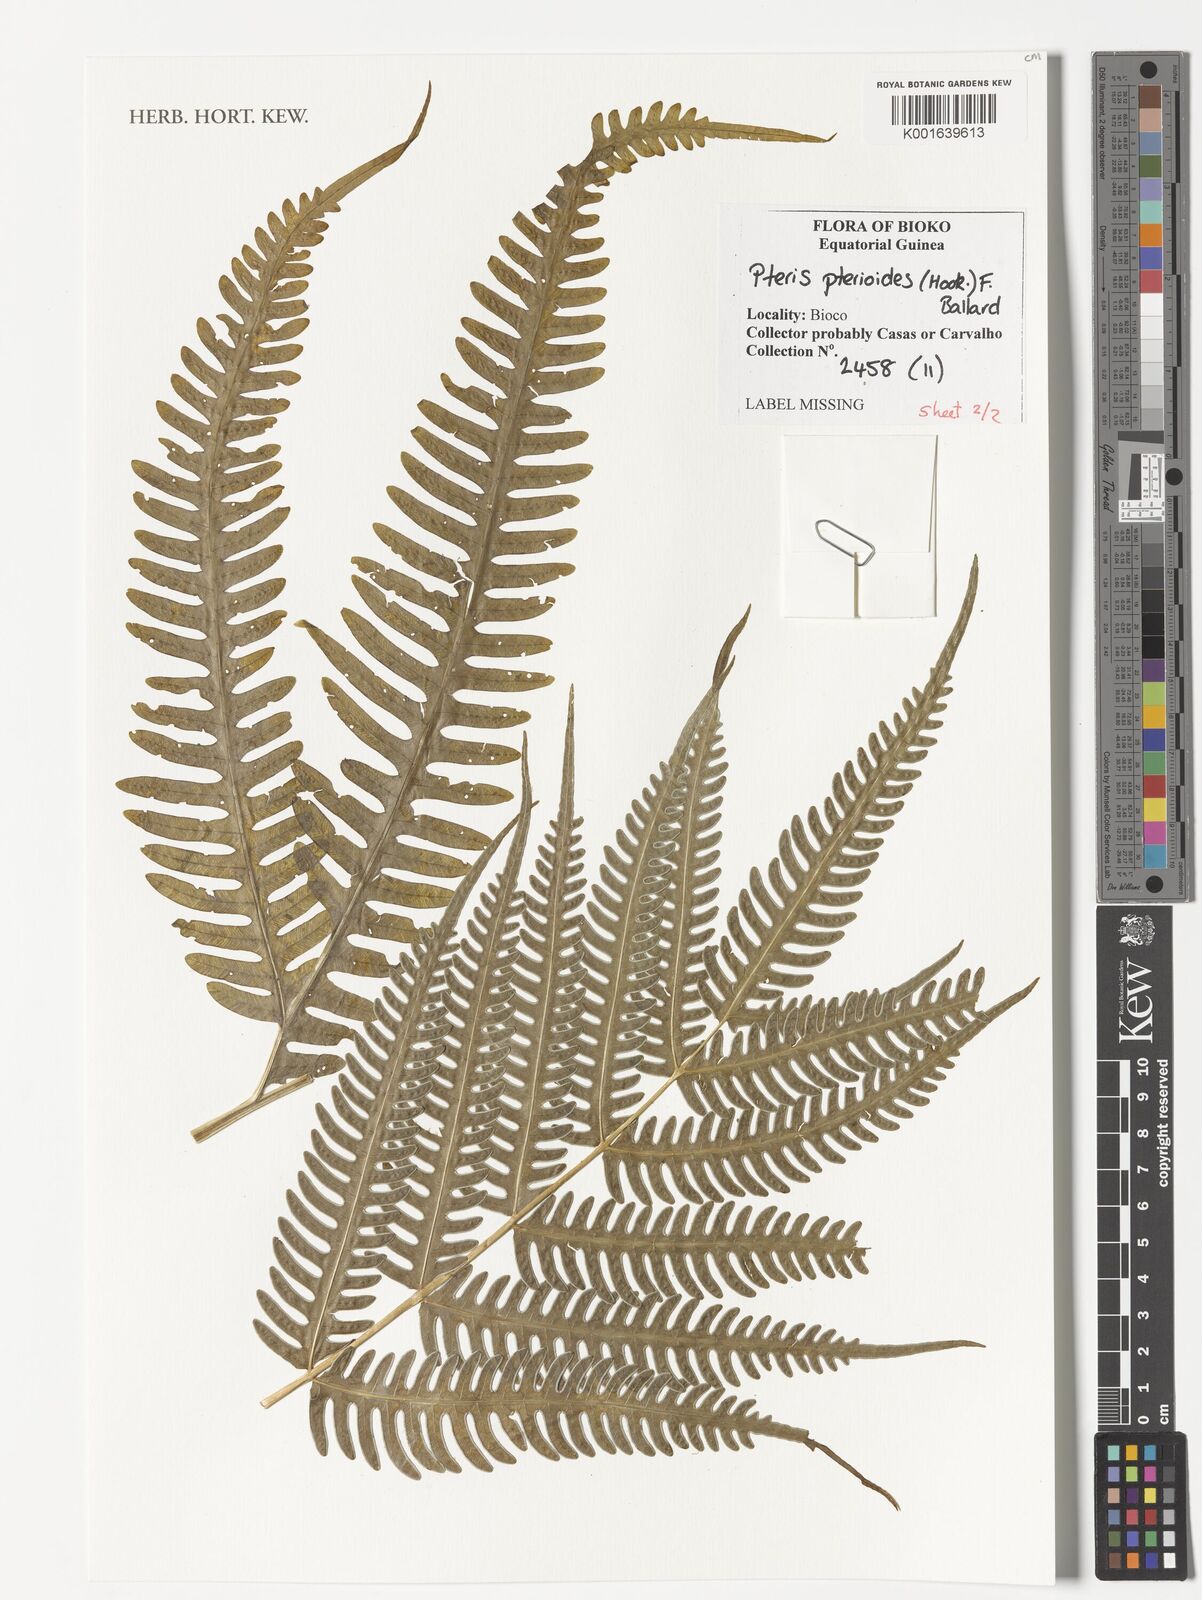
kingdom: Plantae
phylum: Tracheophyta
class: Polypodiopsida
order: Polypodiales
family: Pteridaceae
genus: Pteris
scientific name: Pteris pteridioides
